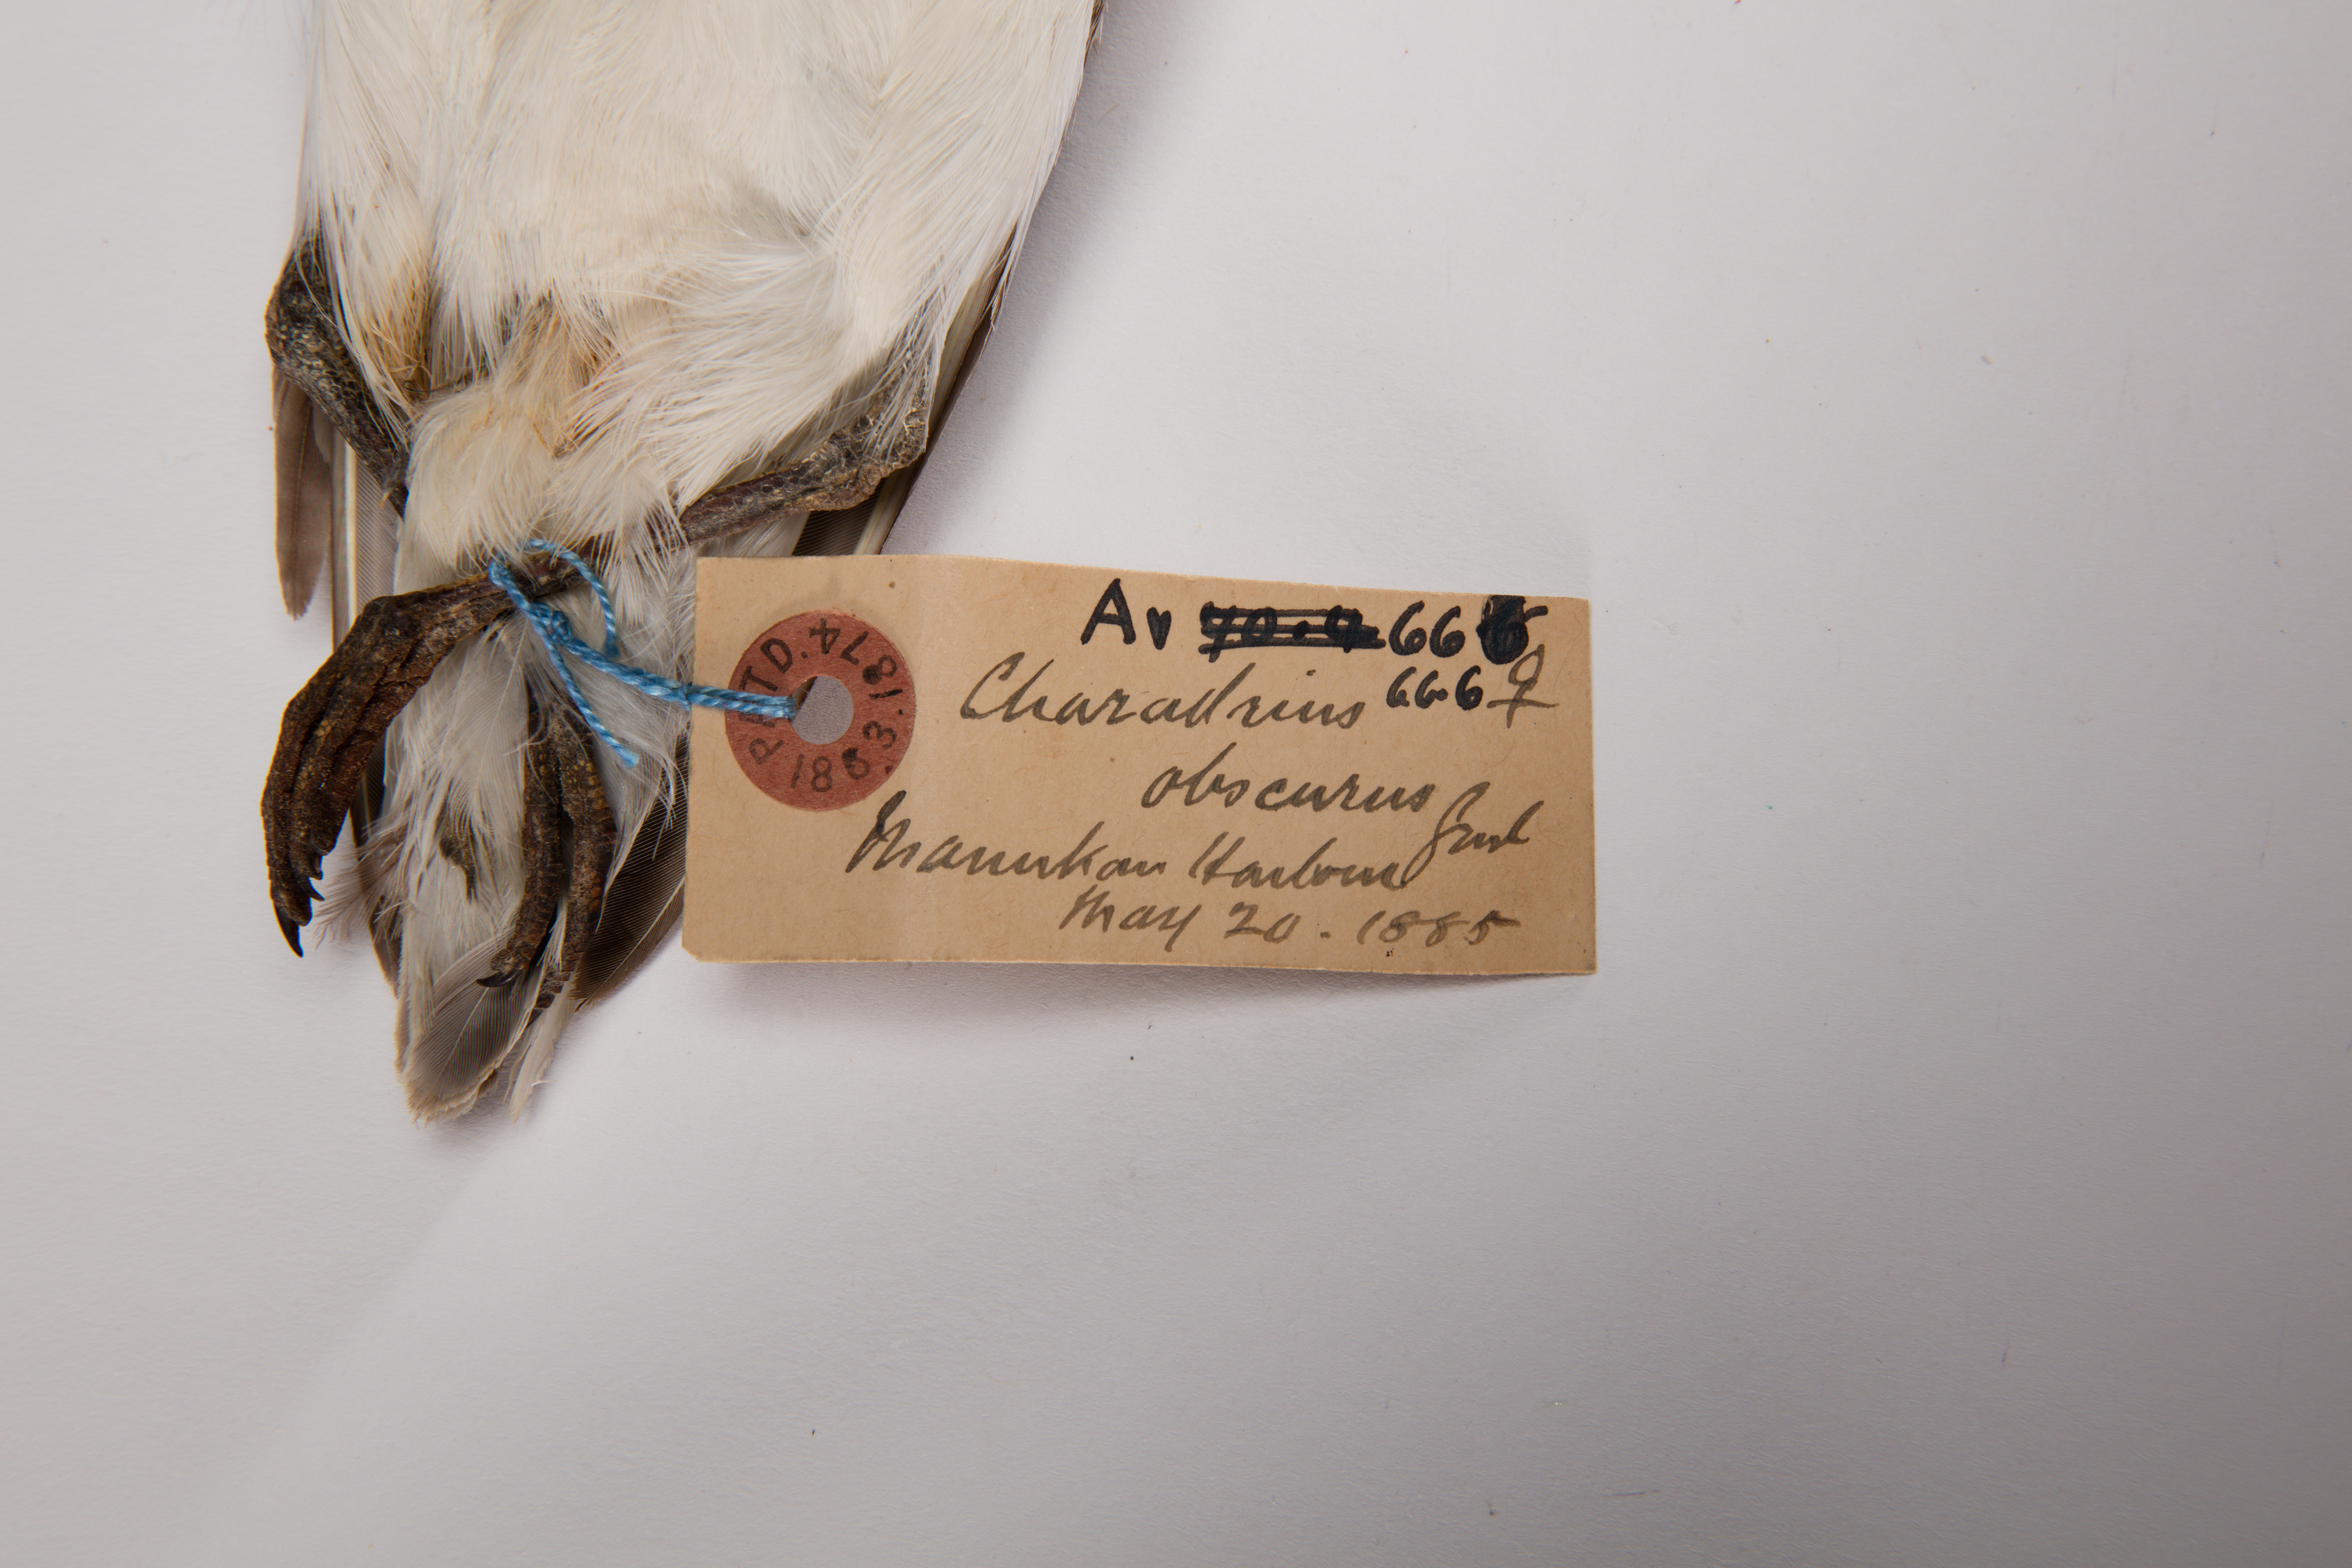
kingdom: Animalia
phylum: Chordata
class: Aves
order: Charadriiformes
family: Charadriidae
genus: Charadrius
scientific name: Charadrius obscurus
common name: New zealand plover
